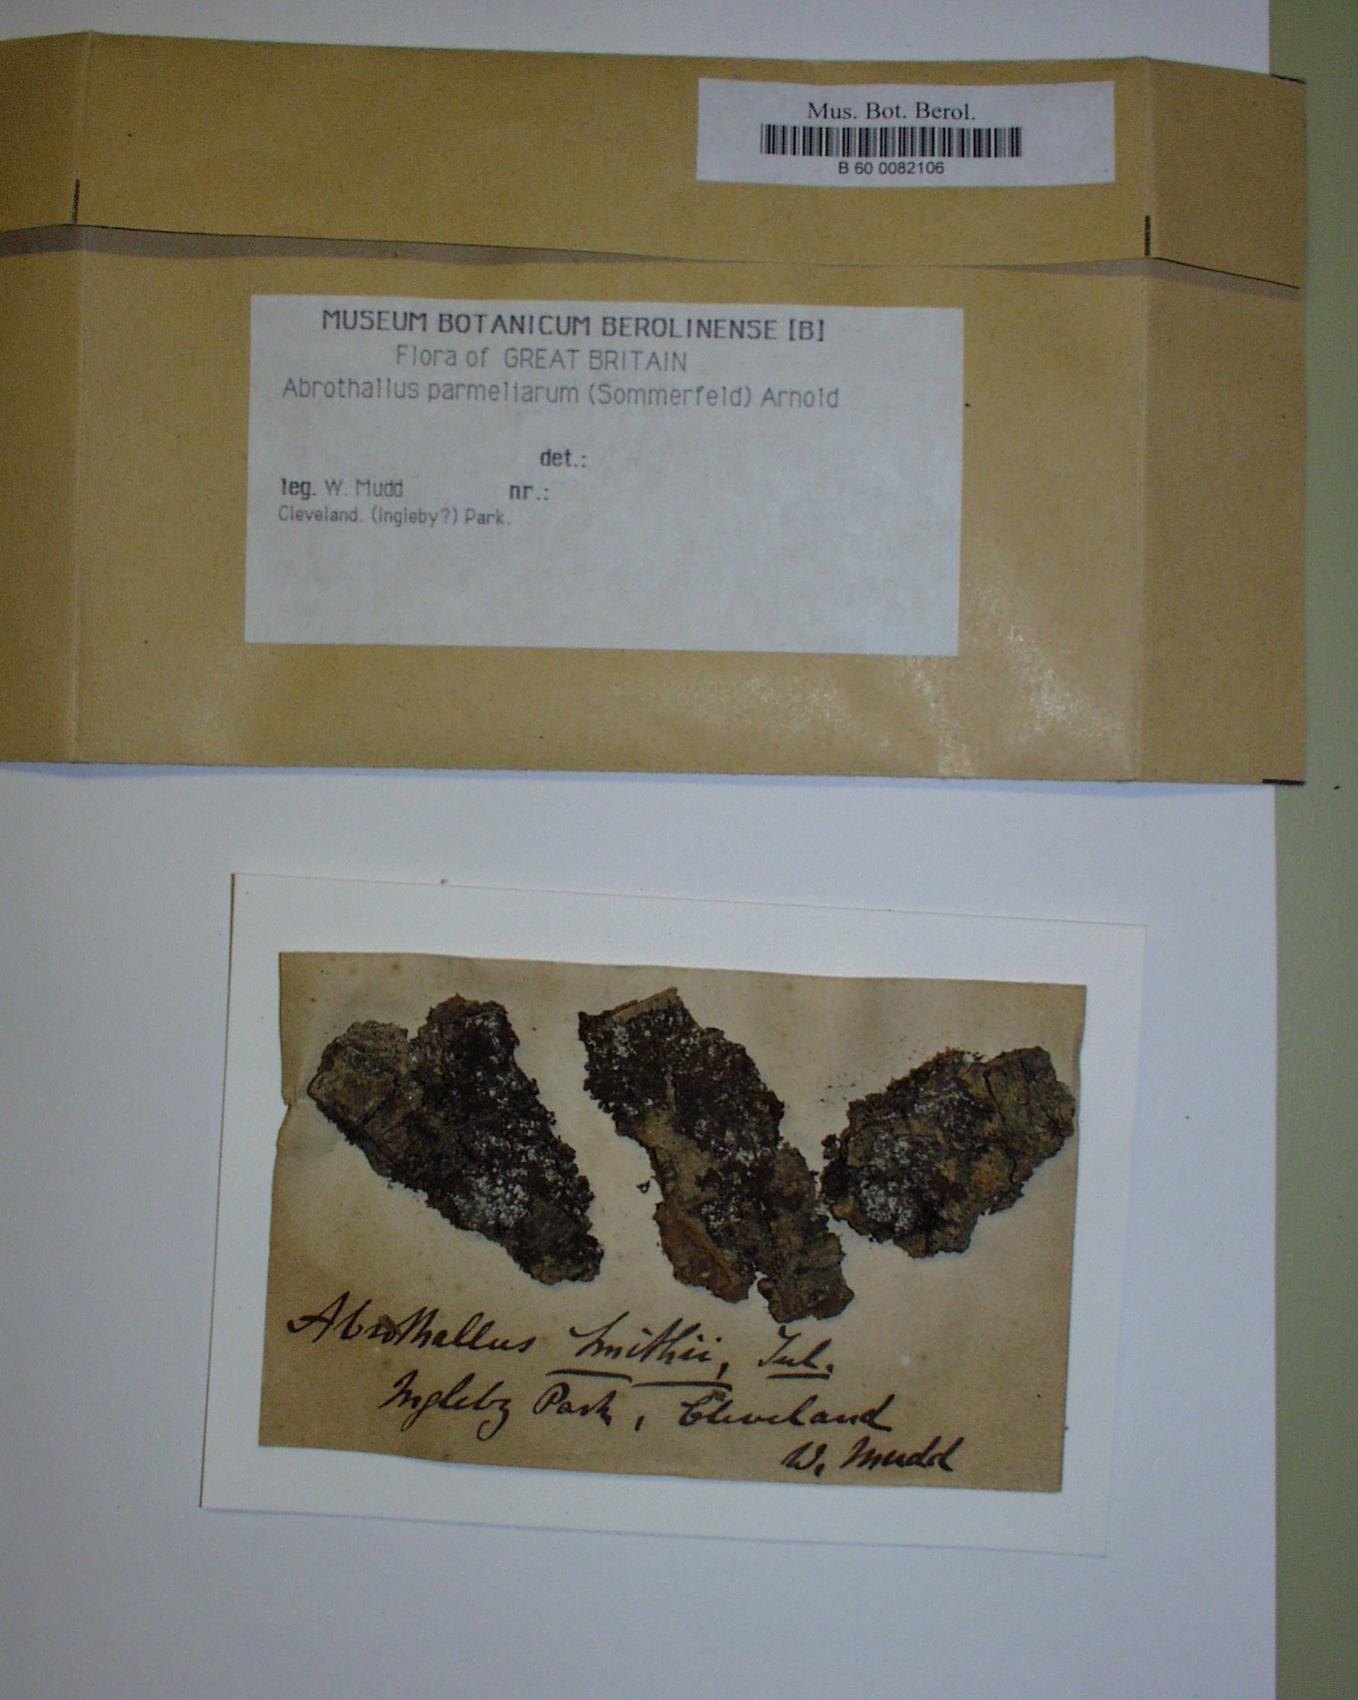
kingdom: Fungi
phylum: Ascomycota
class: Dothideomycetes
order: Abrothallales
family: Abrothallaceae
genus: Abrothallus
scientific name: Abrothallus parmeliarum
